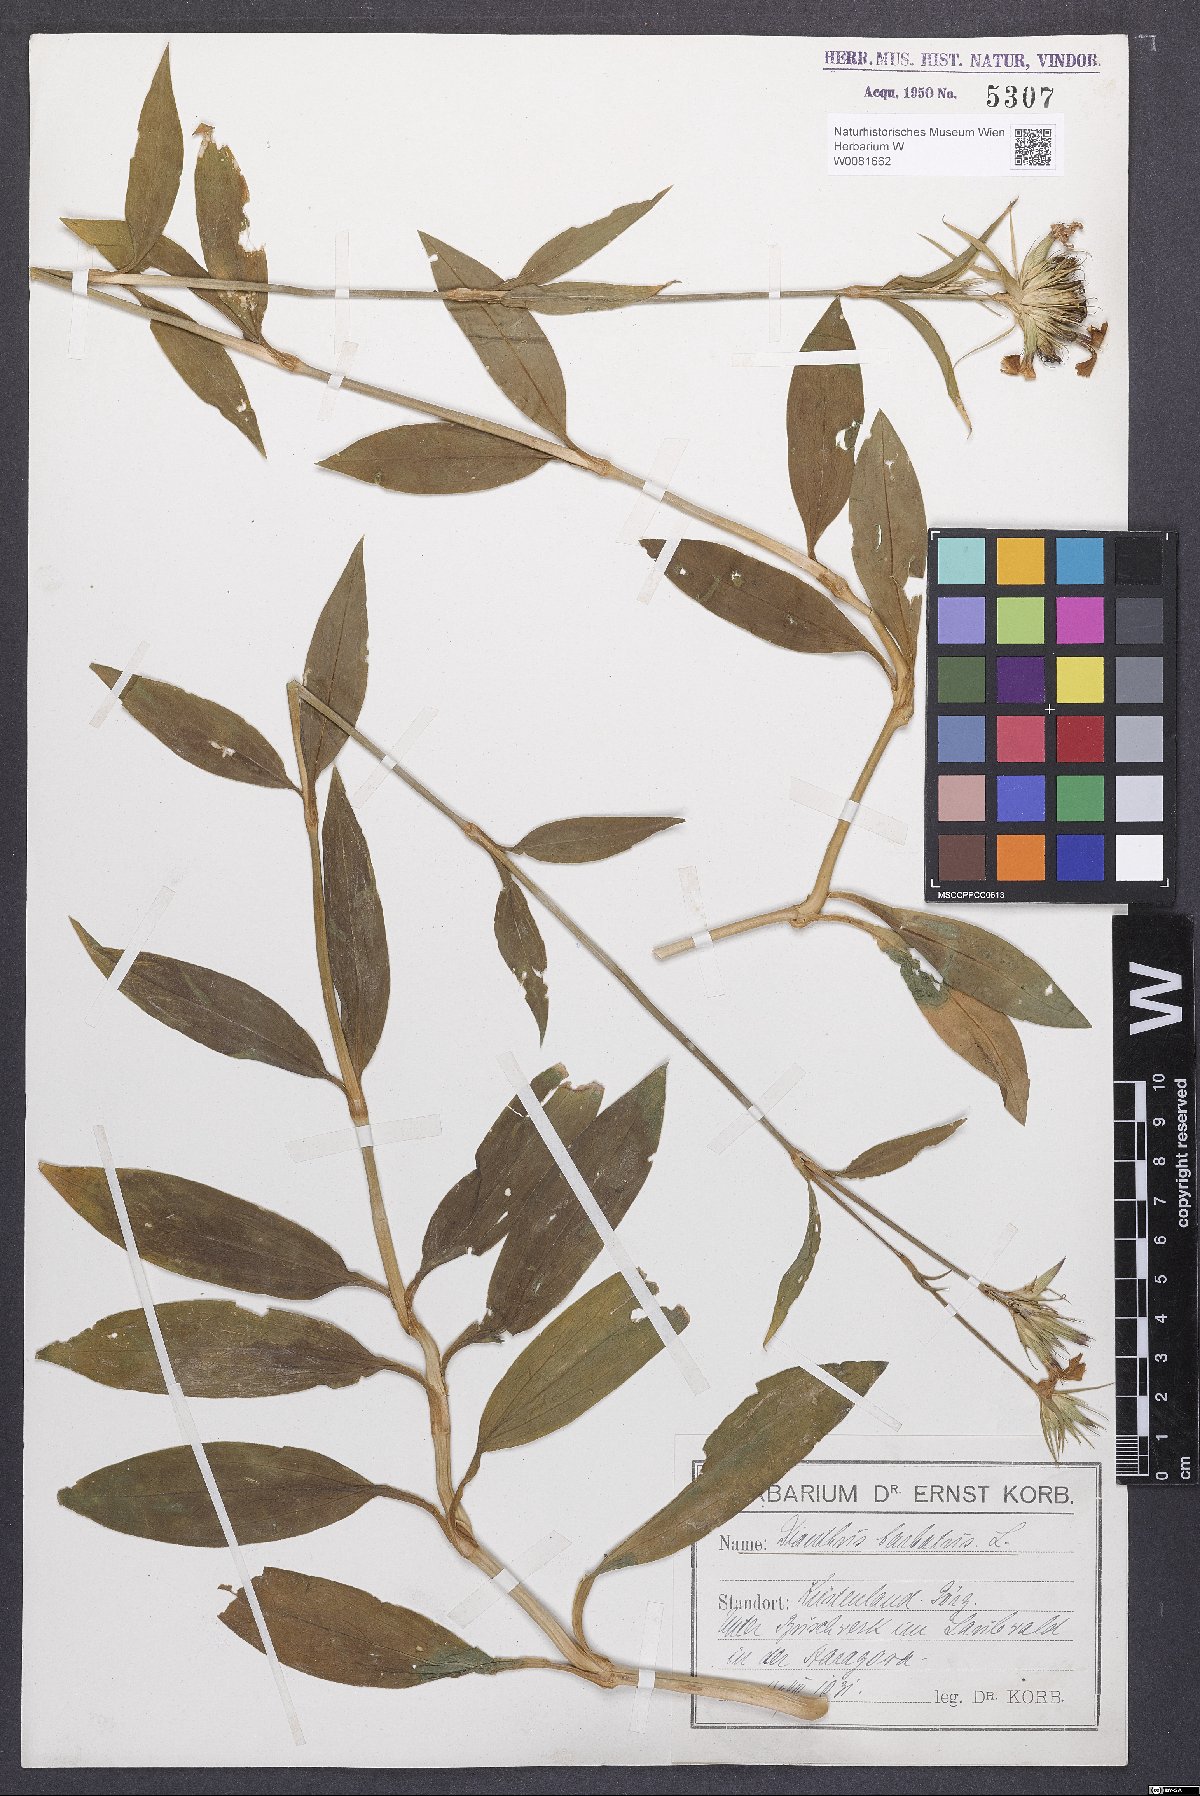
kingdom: Plantae
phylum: Tracheophyta
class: Magnoliopsida
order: Caryophyllales
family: Caryophyllaceae
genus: Dianthus
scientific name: Dianthus barbatus
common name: Sweet-william
